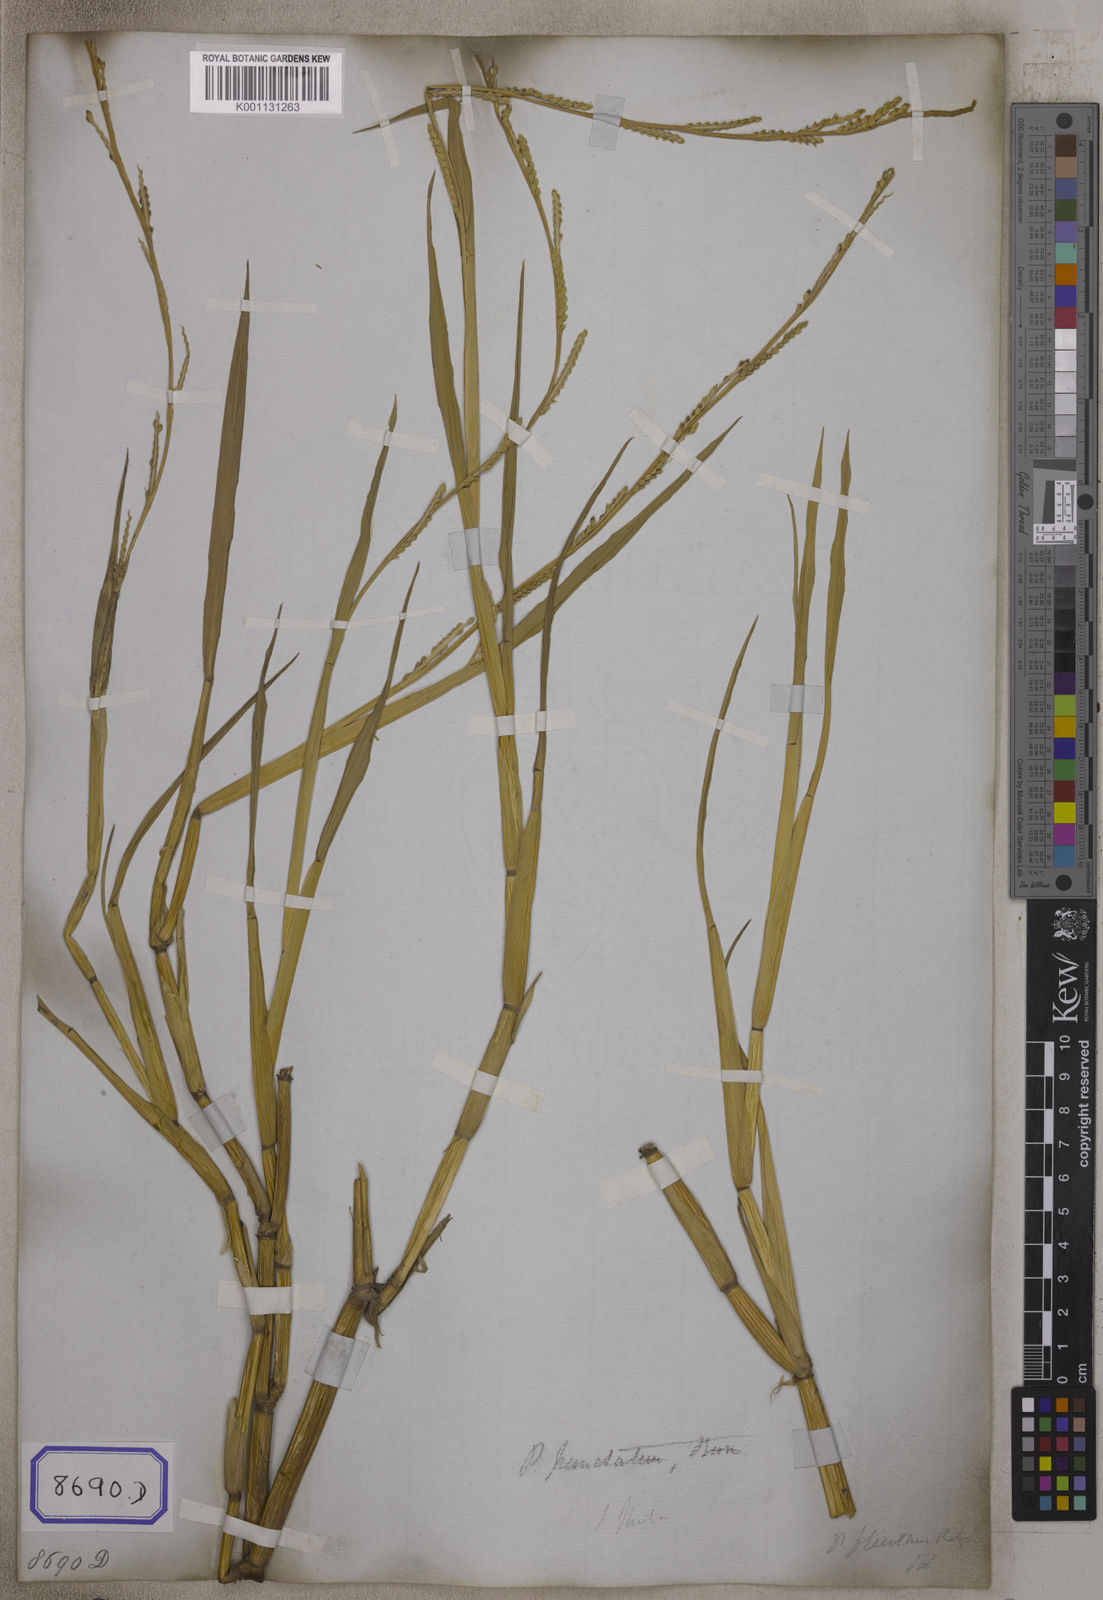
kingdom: Plantae
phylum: Tracheophyta
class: Liliopsida
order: Poales
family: Poaceae
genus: Echinochloa
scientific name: Echinochloa colonum
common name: Jungle rice
